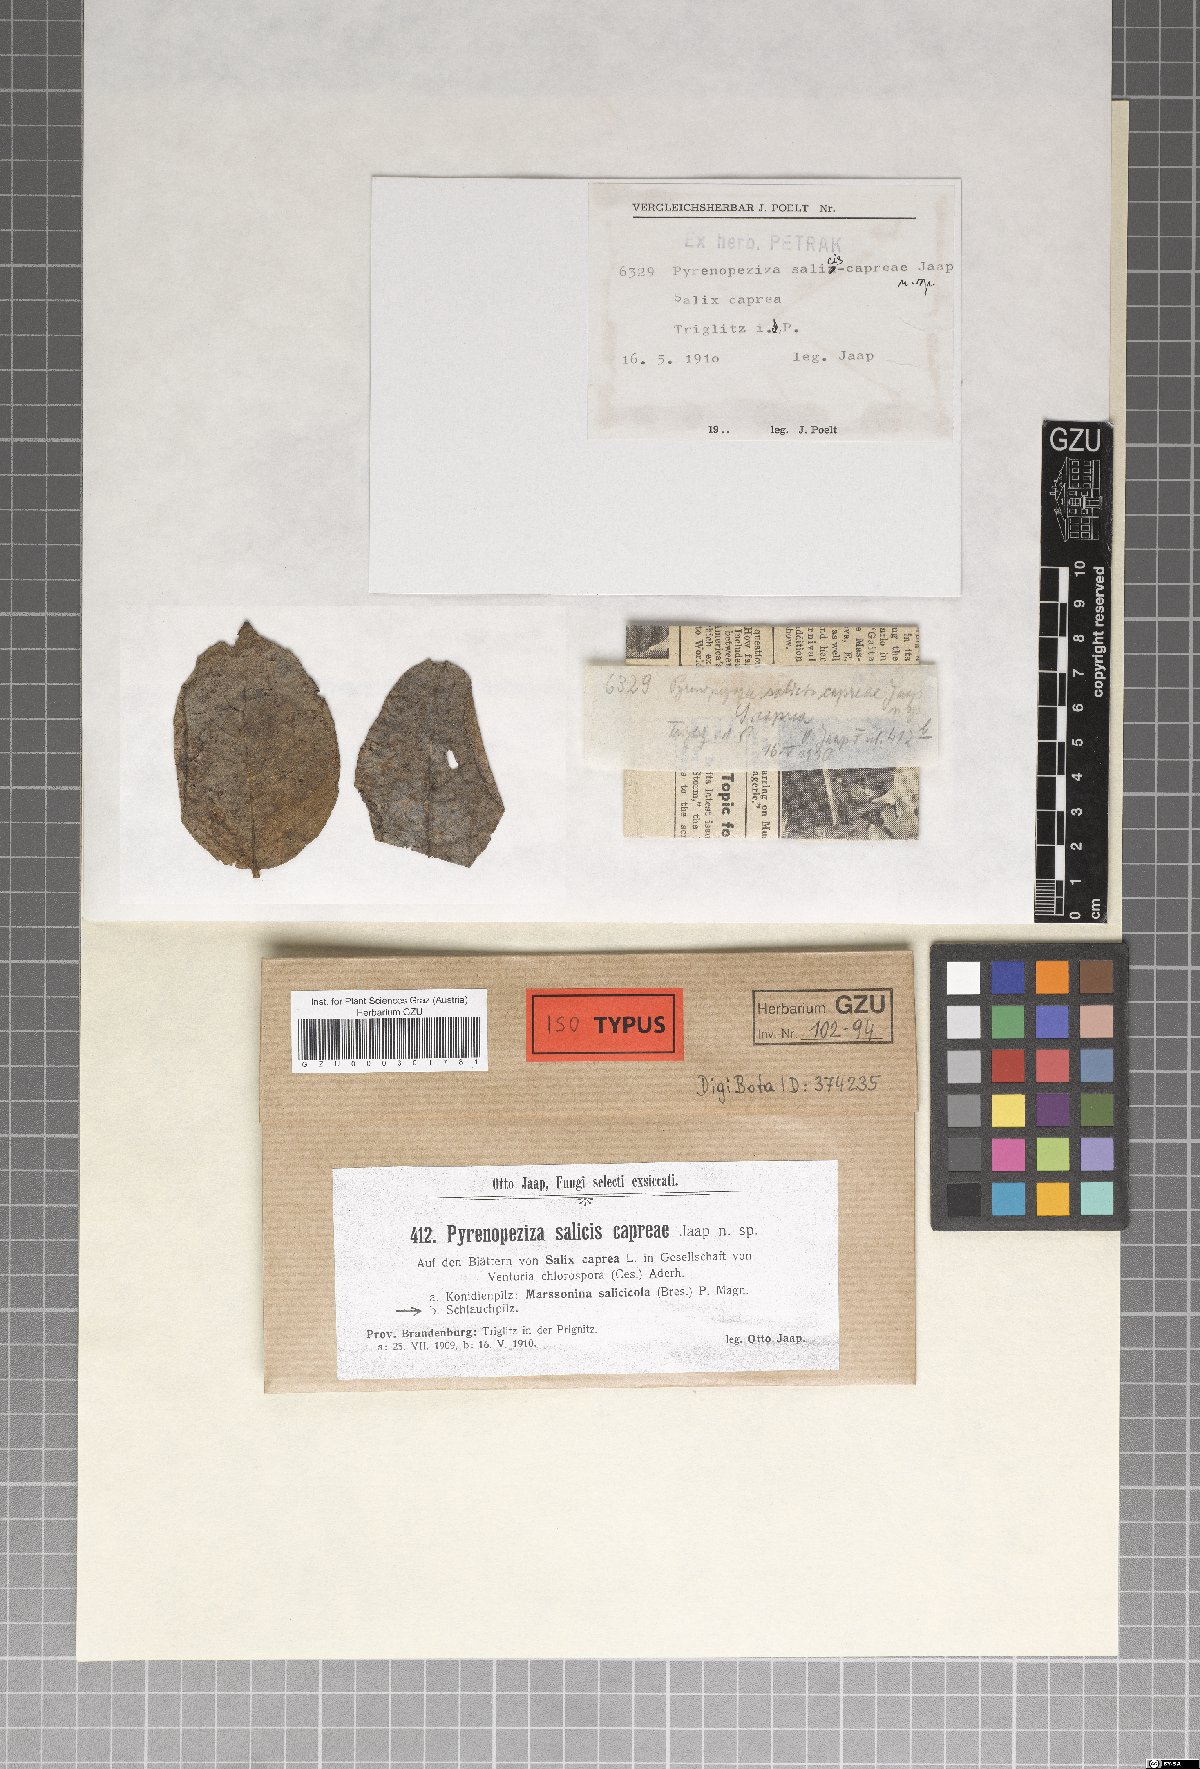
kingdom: Fungi
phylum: Ascomycota
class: Leotiomycetes
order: Helotiales
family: Ploettnerulaceae
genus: Pyrenopeziza
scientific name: Pyrenopeziza salicis-capreae
